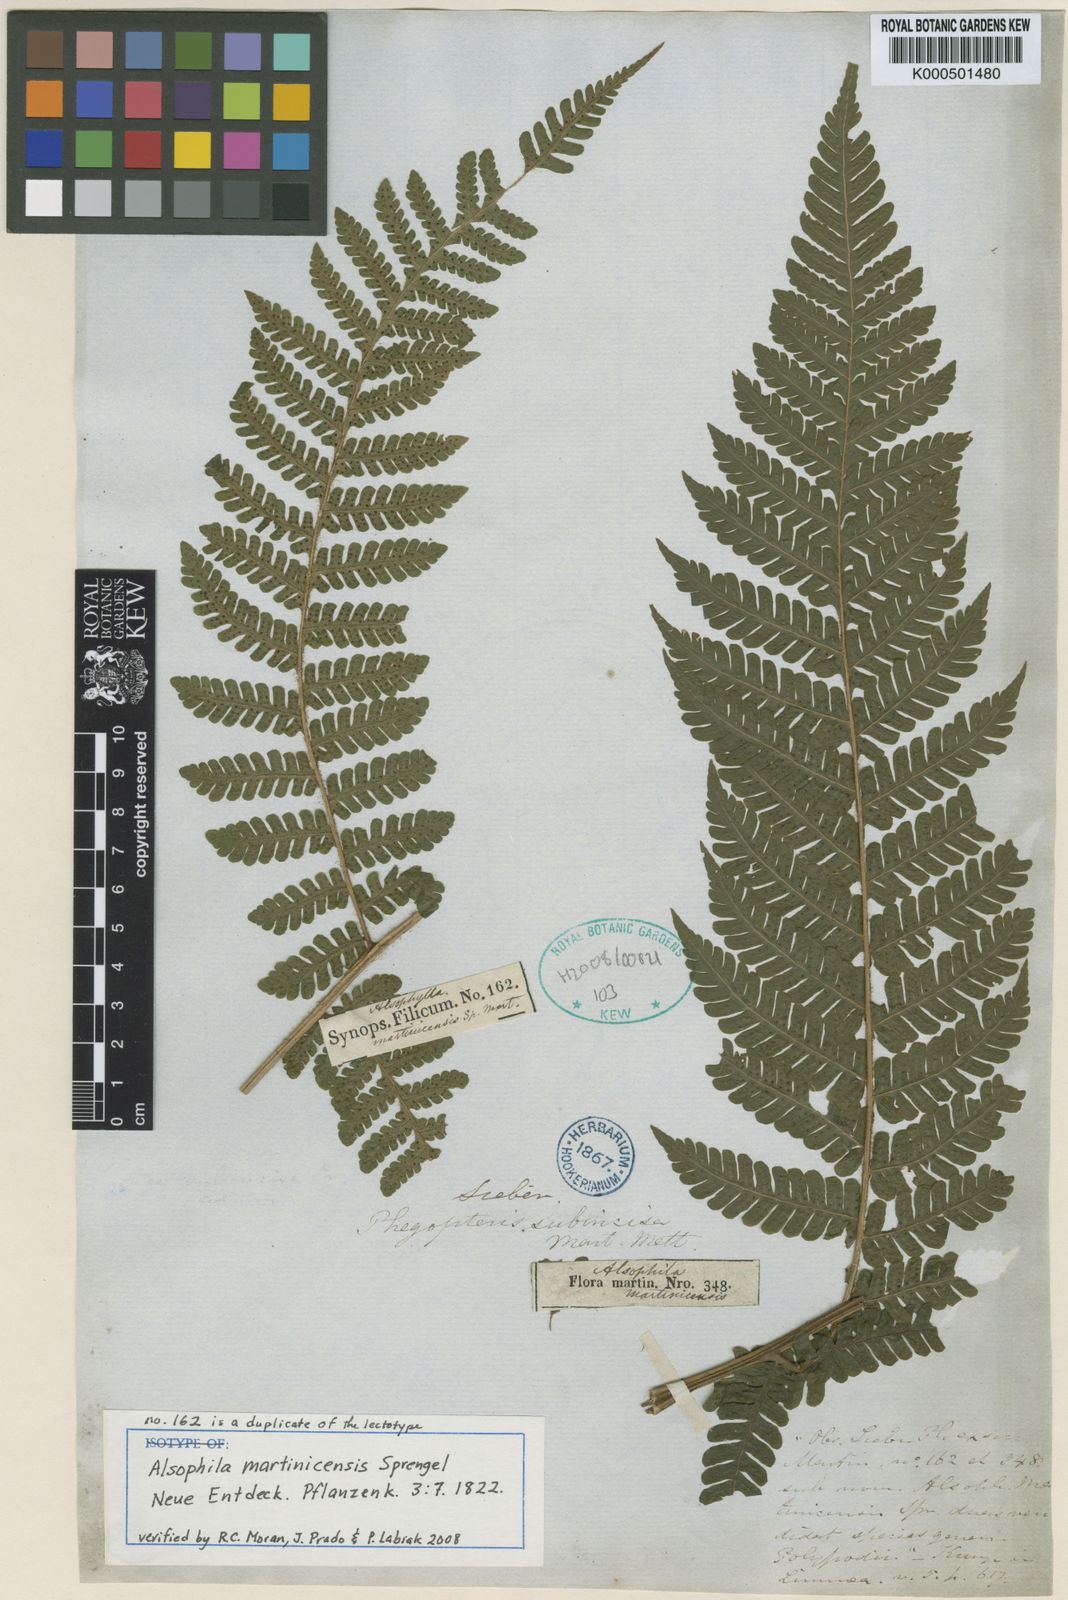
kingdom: Plantae
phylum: Tracheophyta
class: Polypodiopsida
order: Polypodiales
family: Dryopteridaceae
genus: Megalastrum
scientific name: Megalastrum martinicense
